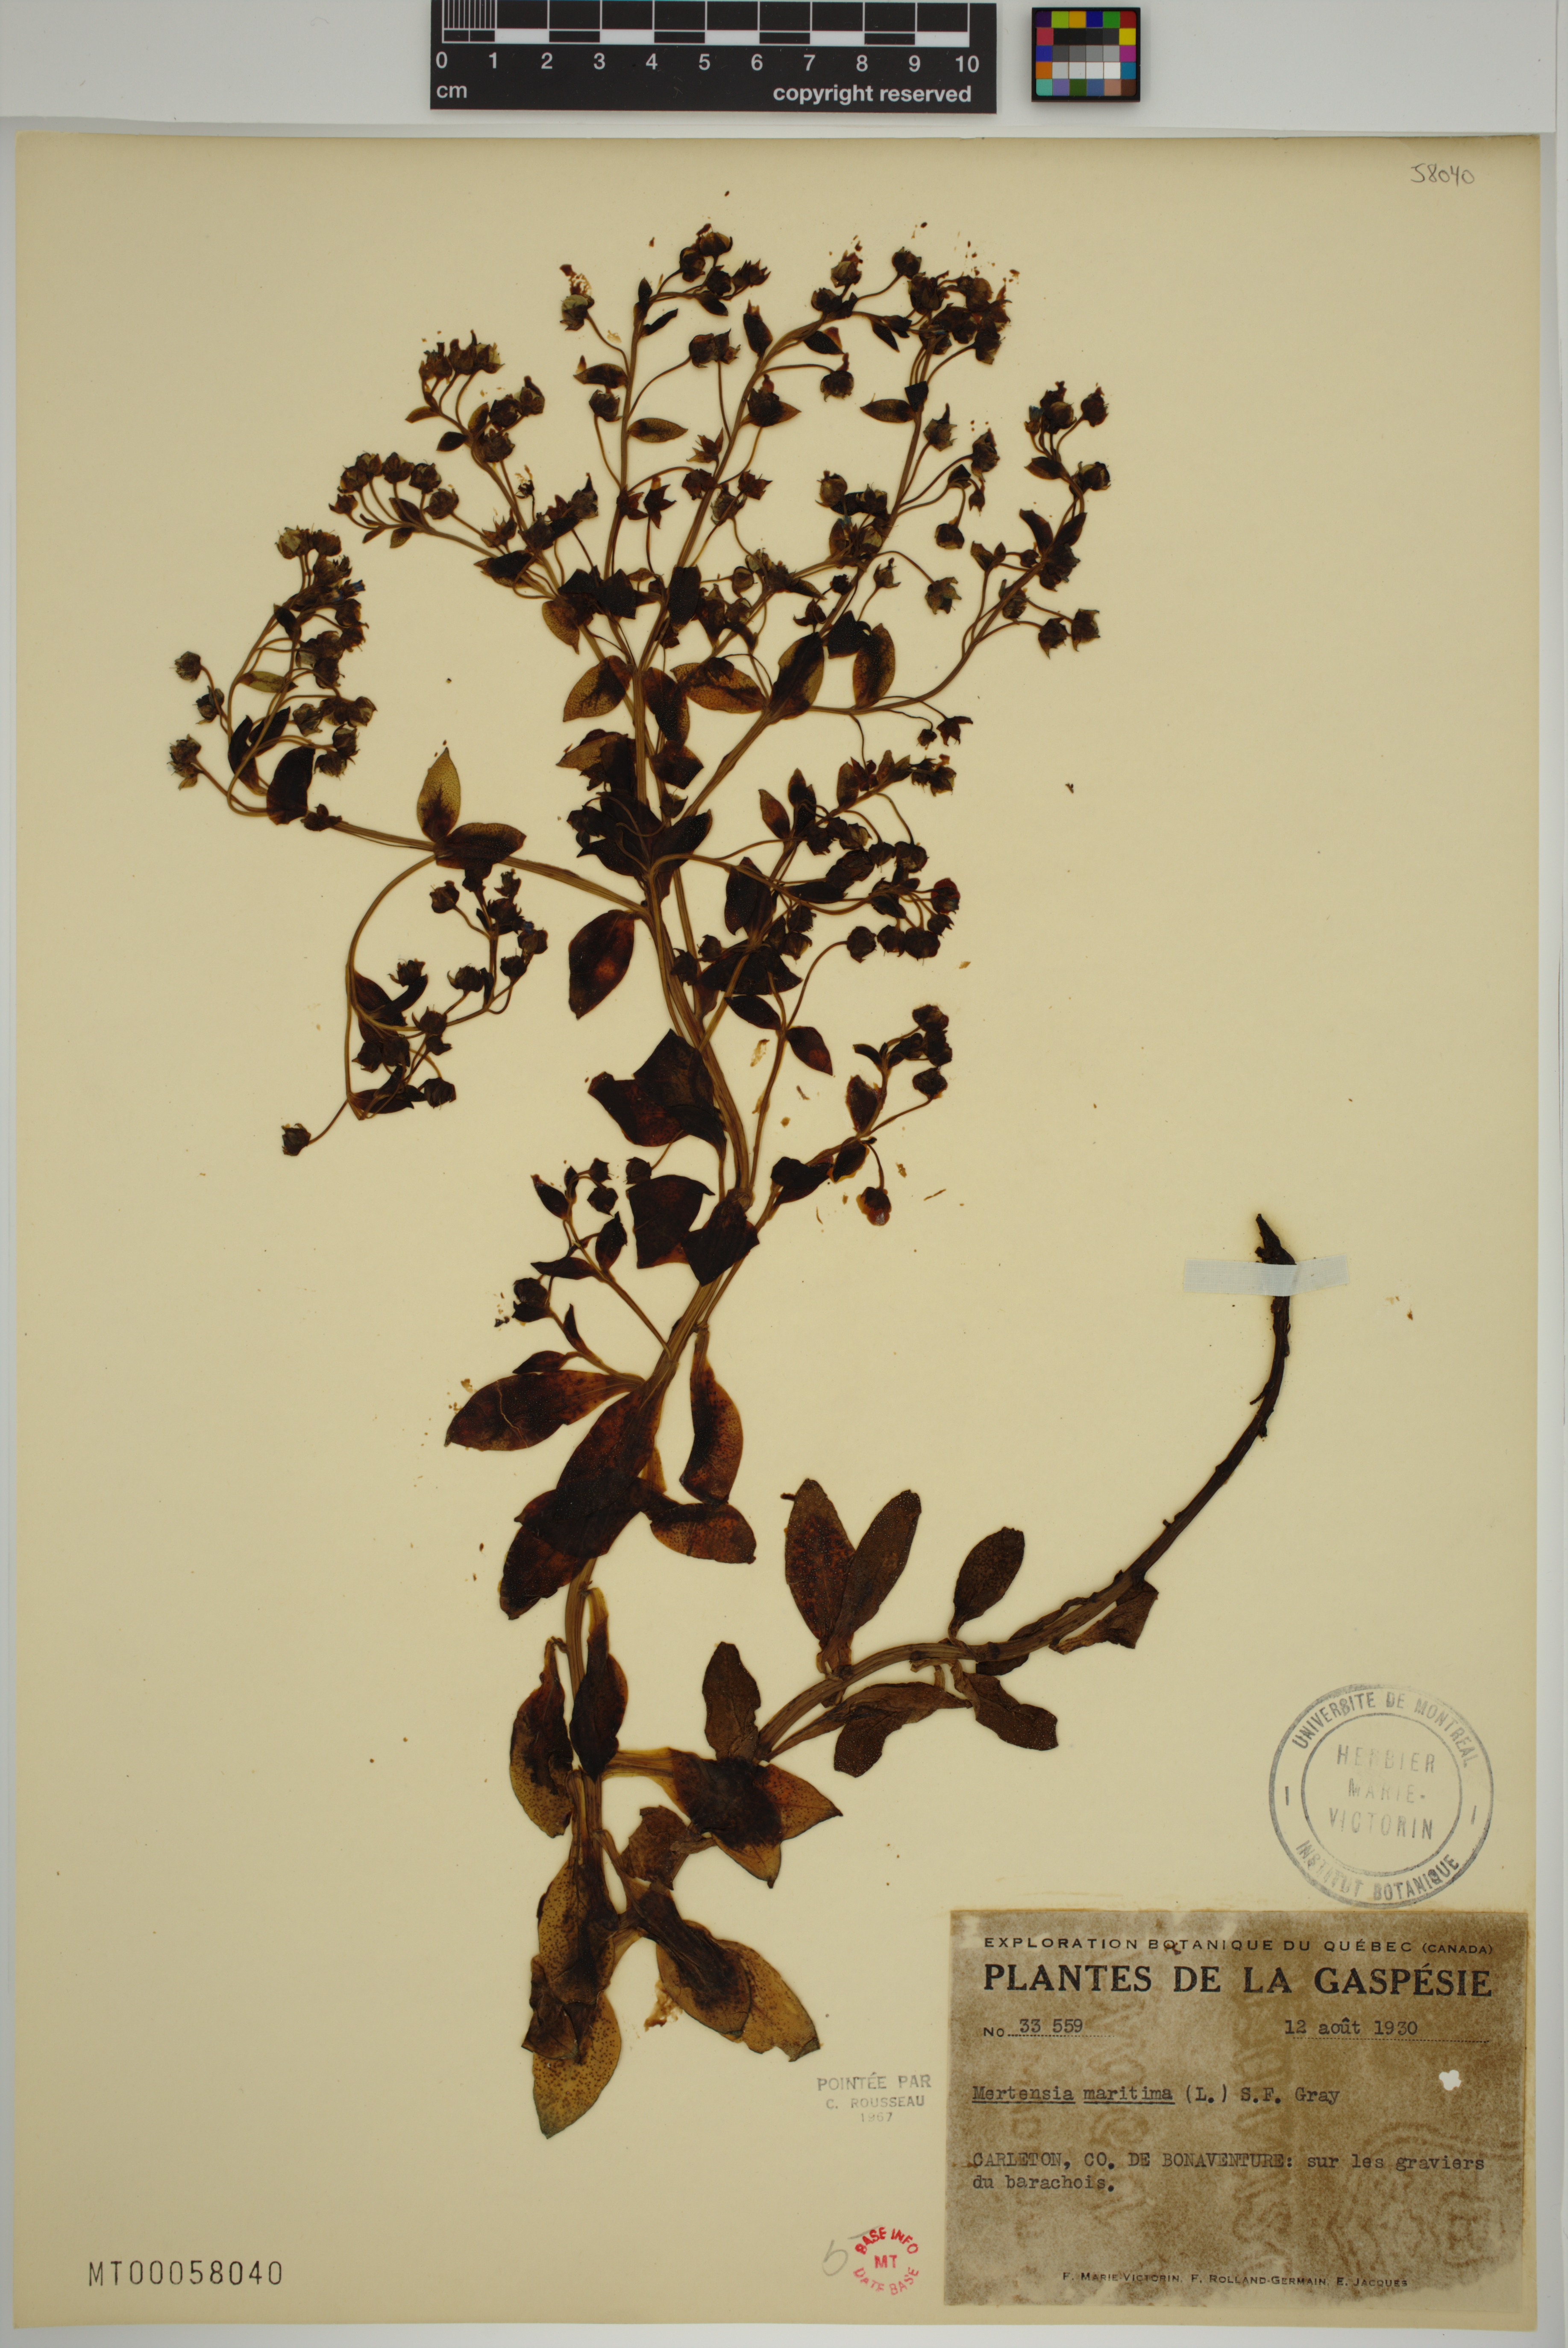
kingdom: Plantae
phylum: Tracheophyta
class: Magnoliopsida
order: Boraginales
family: Boraginaceae
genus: Mertensia
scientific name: Mertensia maritima
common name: Oysterplant
